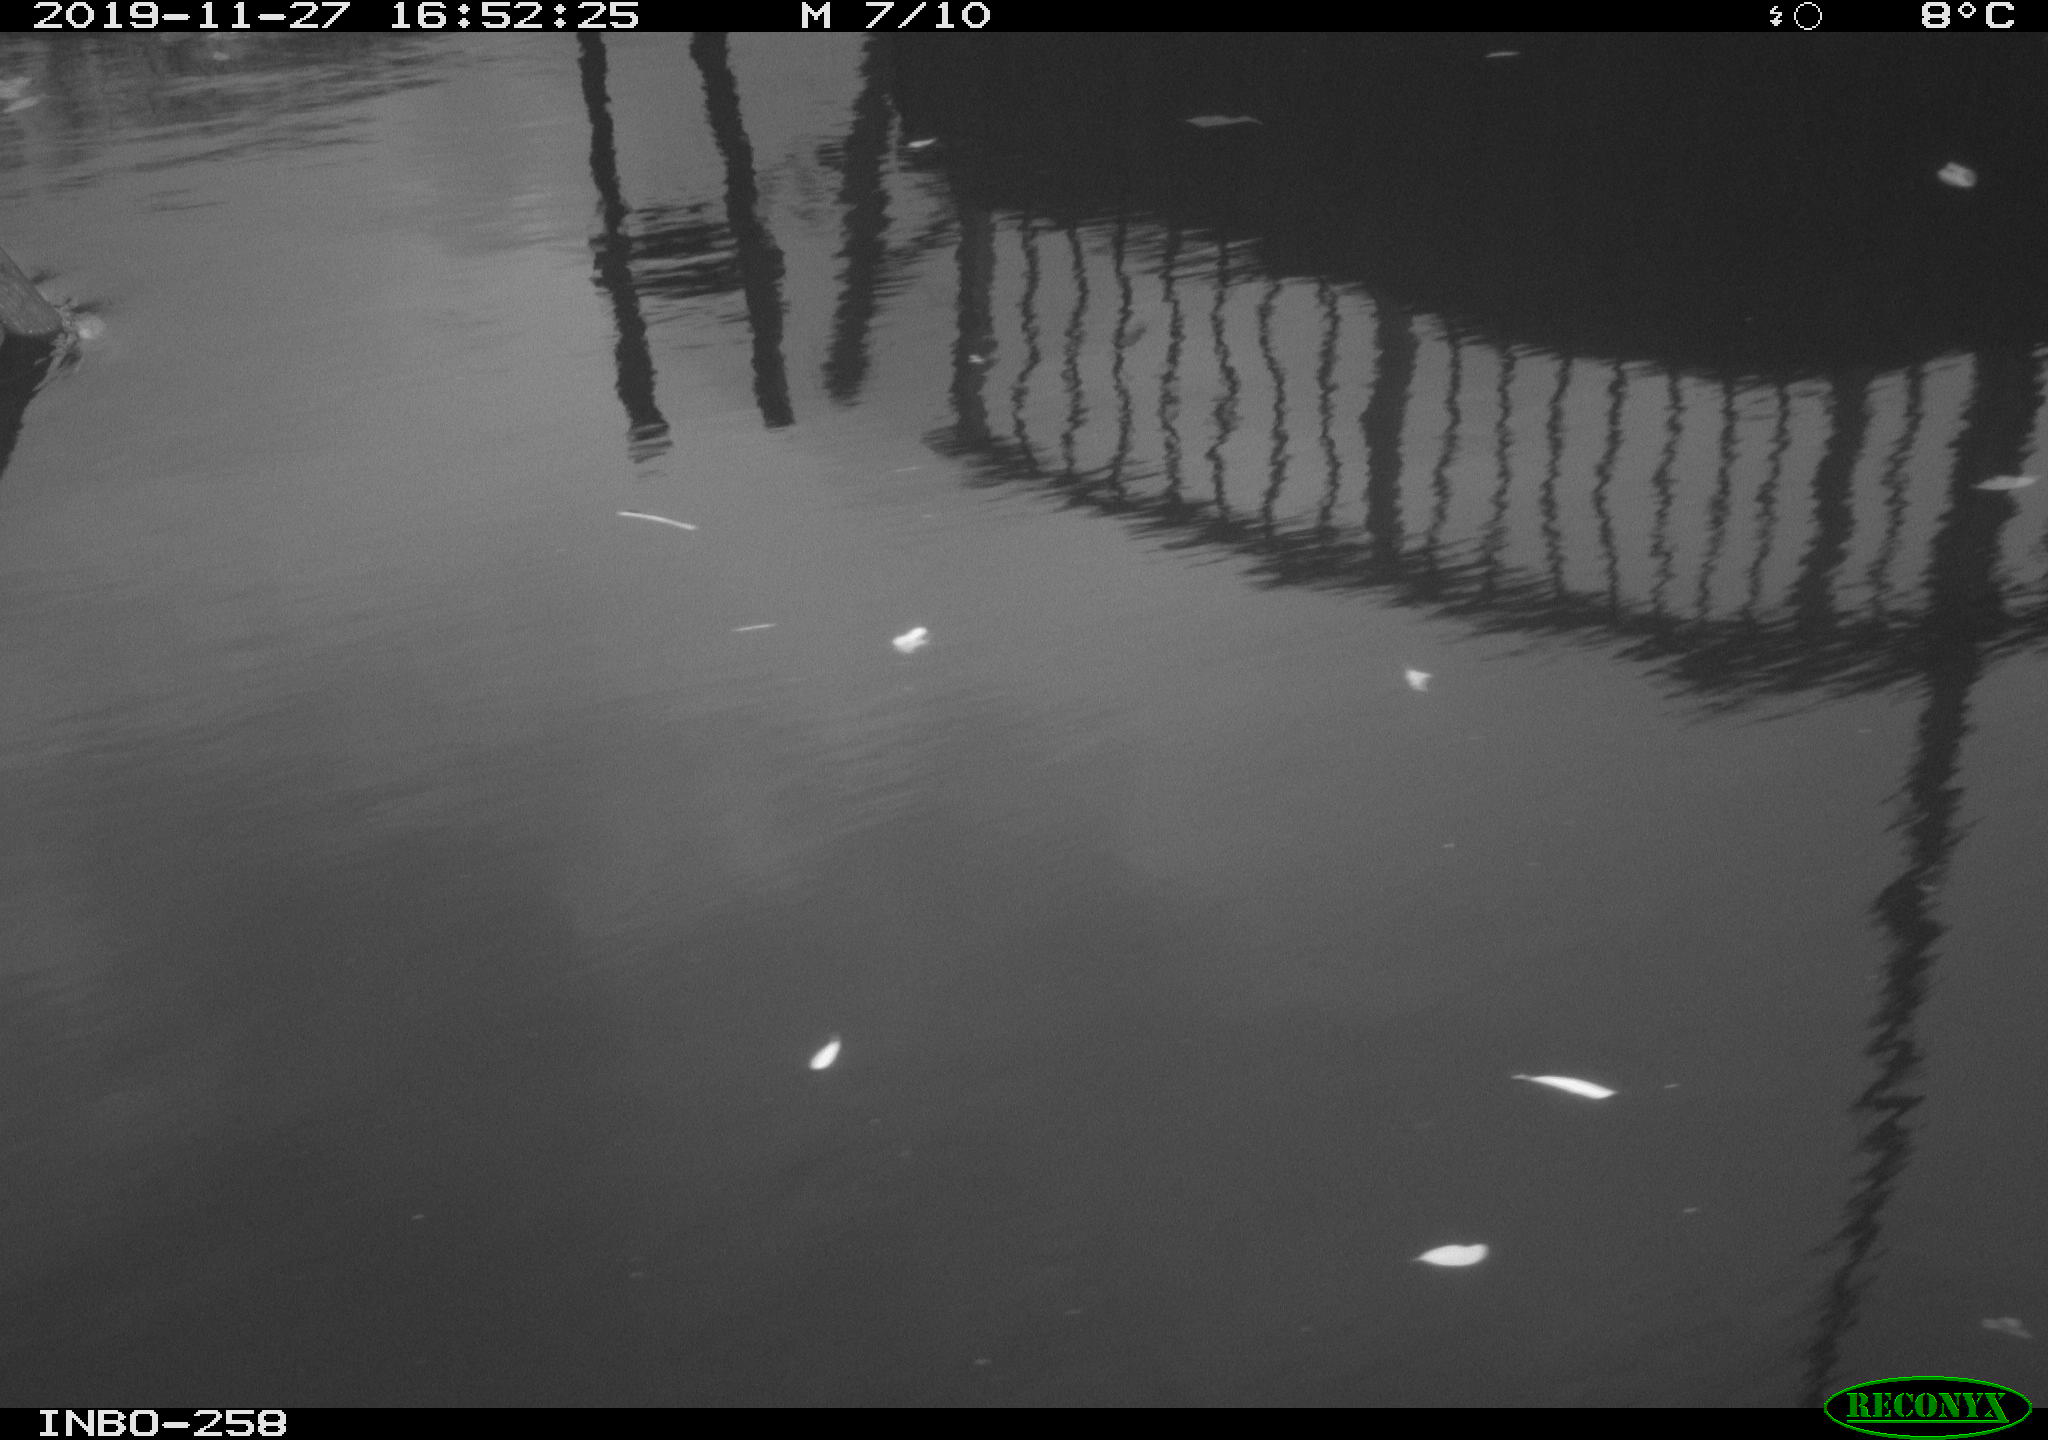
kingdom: Animalia
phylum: Chordata
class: Aves
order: Gruiformes
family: Rallidae
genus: Gallinula
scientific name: Gallinula chloropus
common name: Common moorhen
